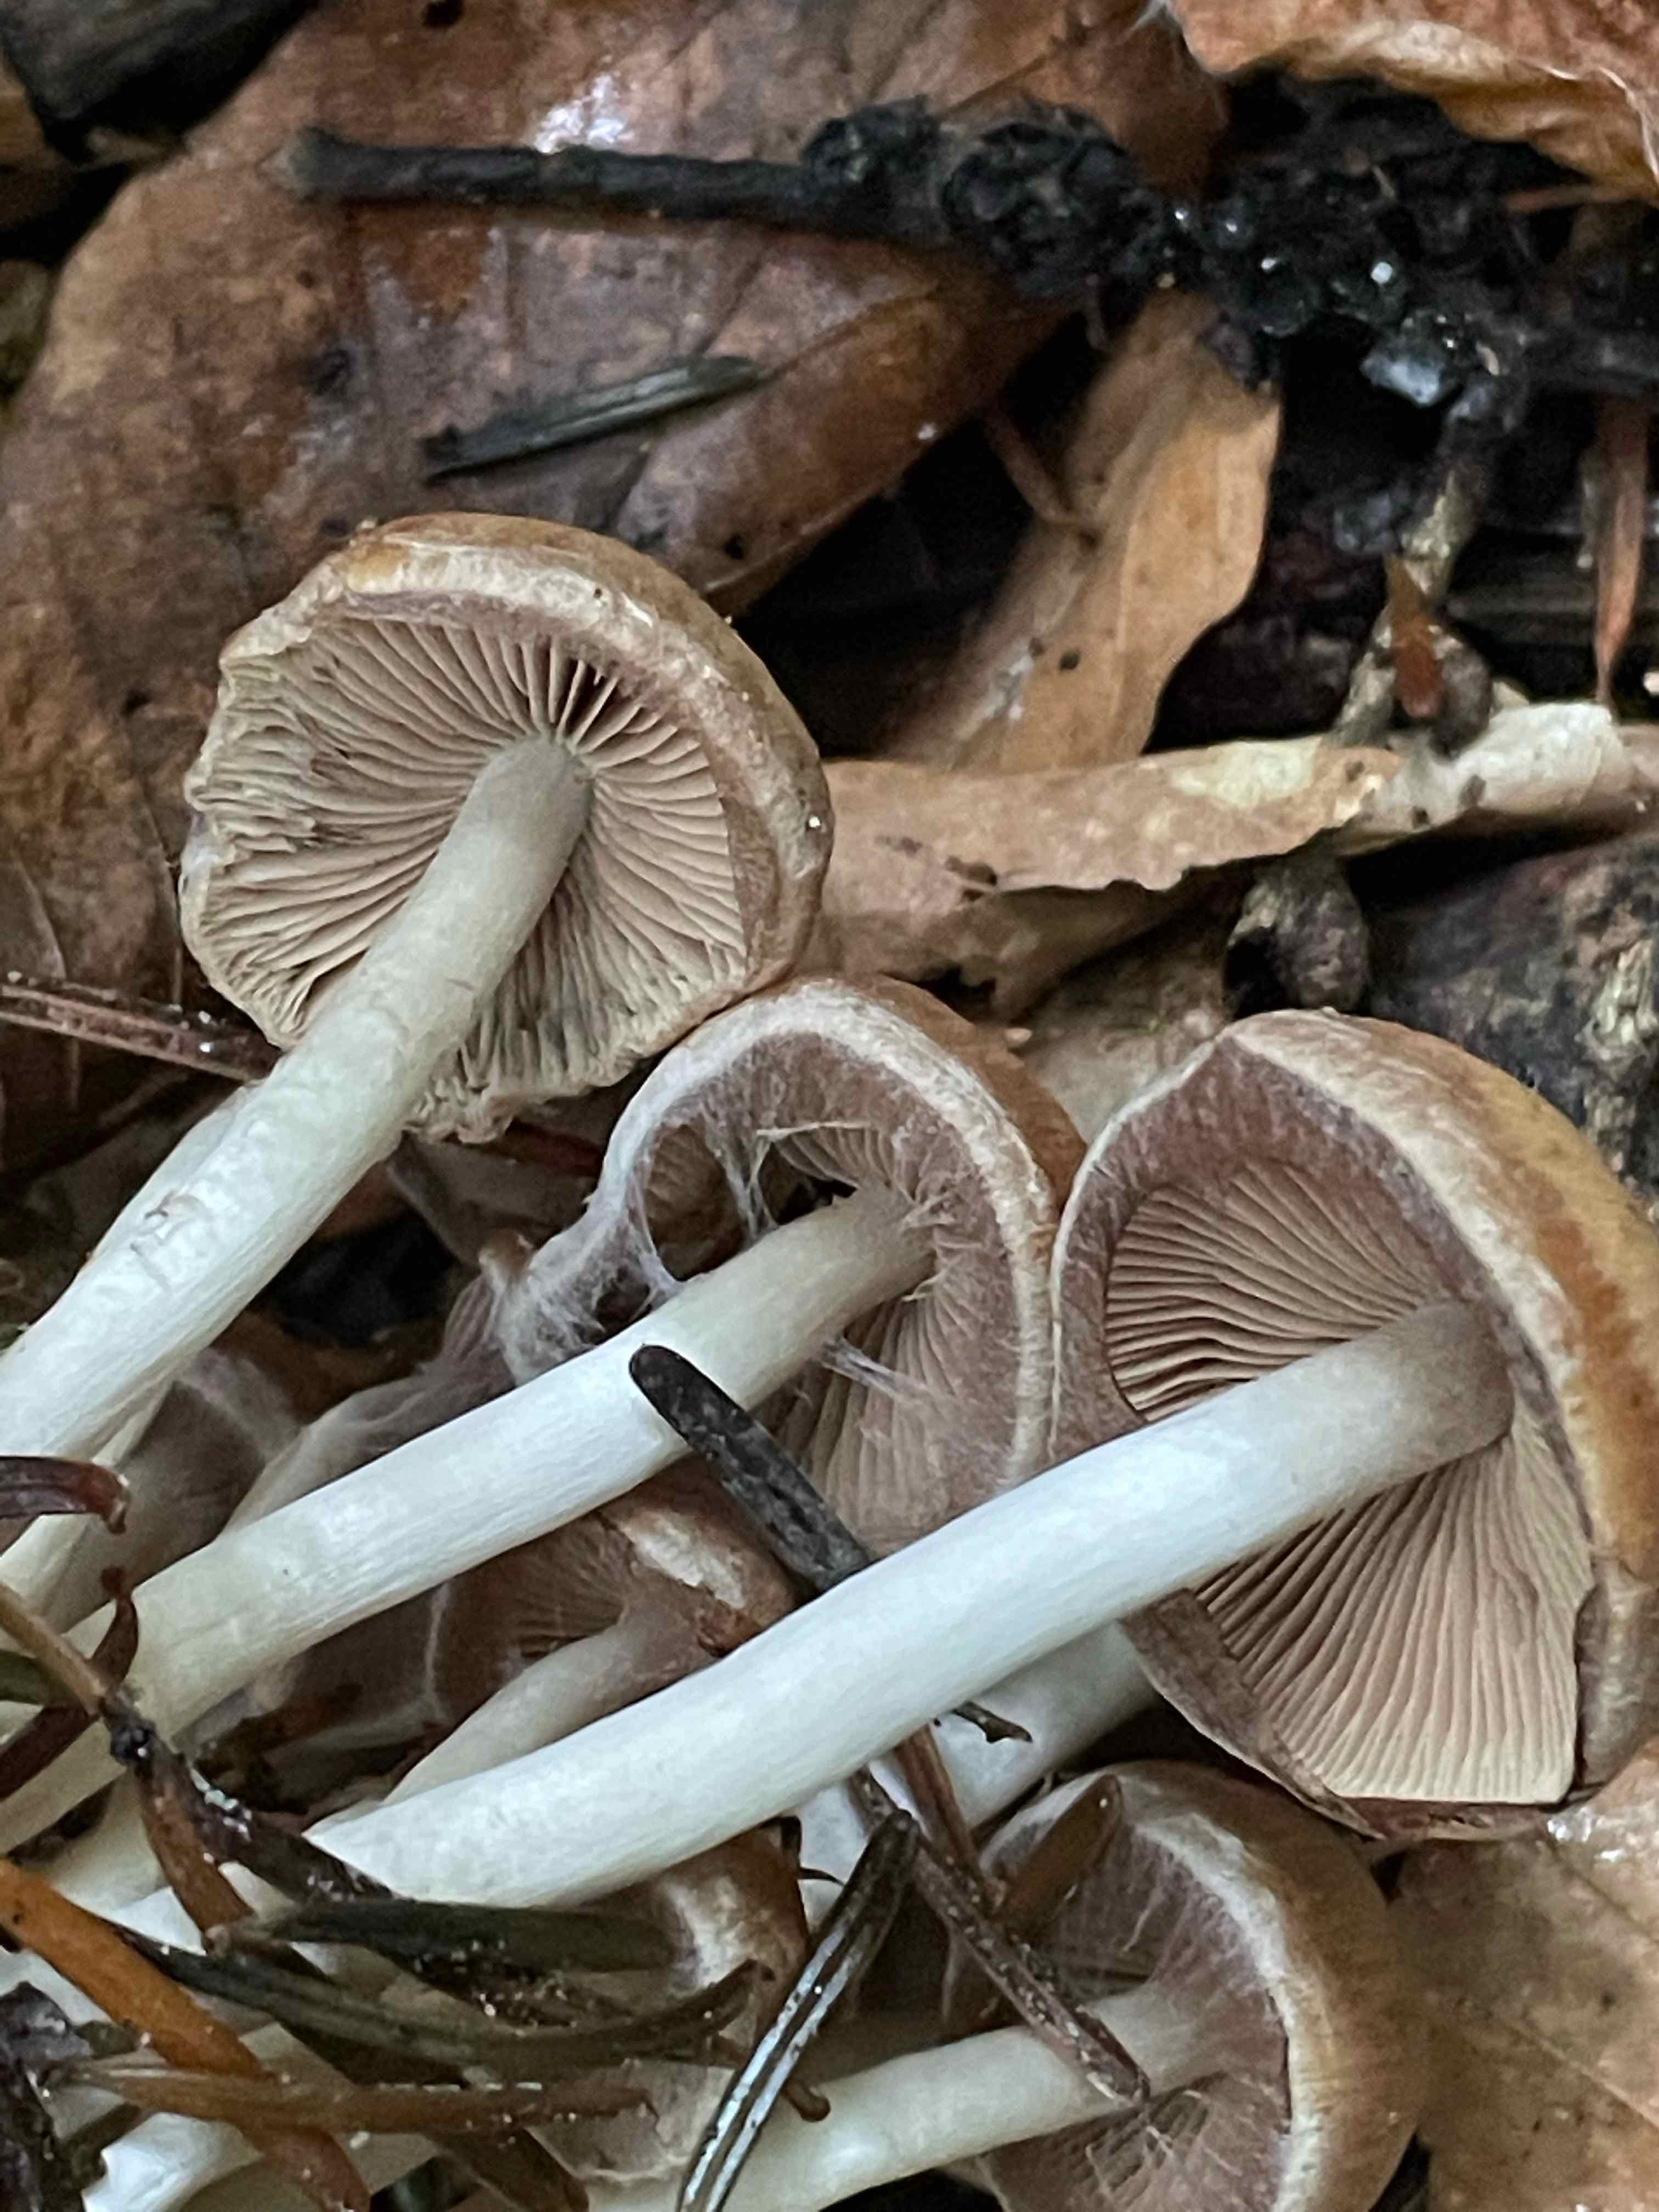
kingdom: Fungi
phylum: Basidiomycota
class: Agaricomycetes
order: Agaricales
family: Psathyrellaceae
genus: Psathyrella
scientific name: Psathyrella piluliformis
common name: lysstokket mørkhat
